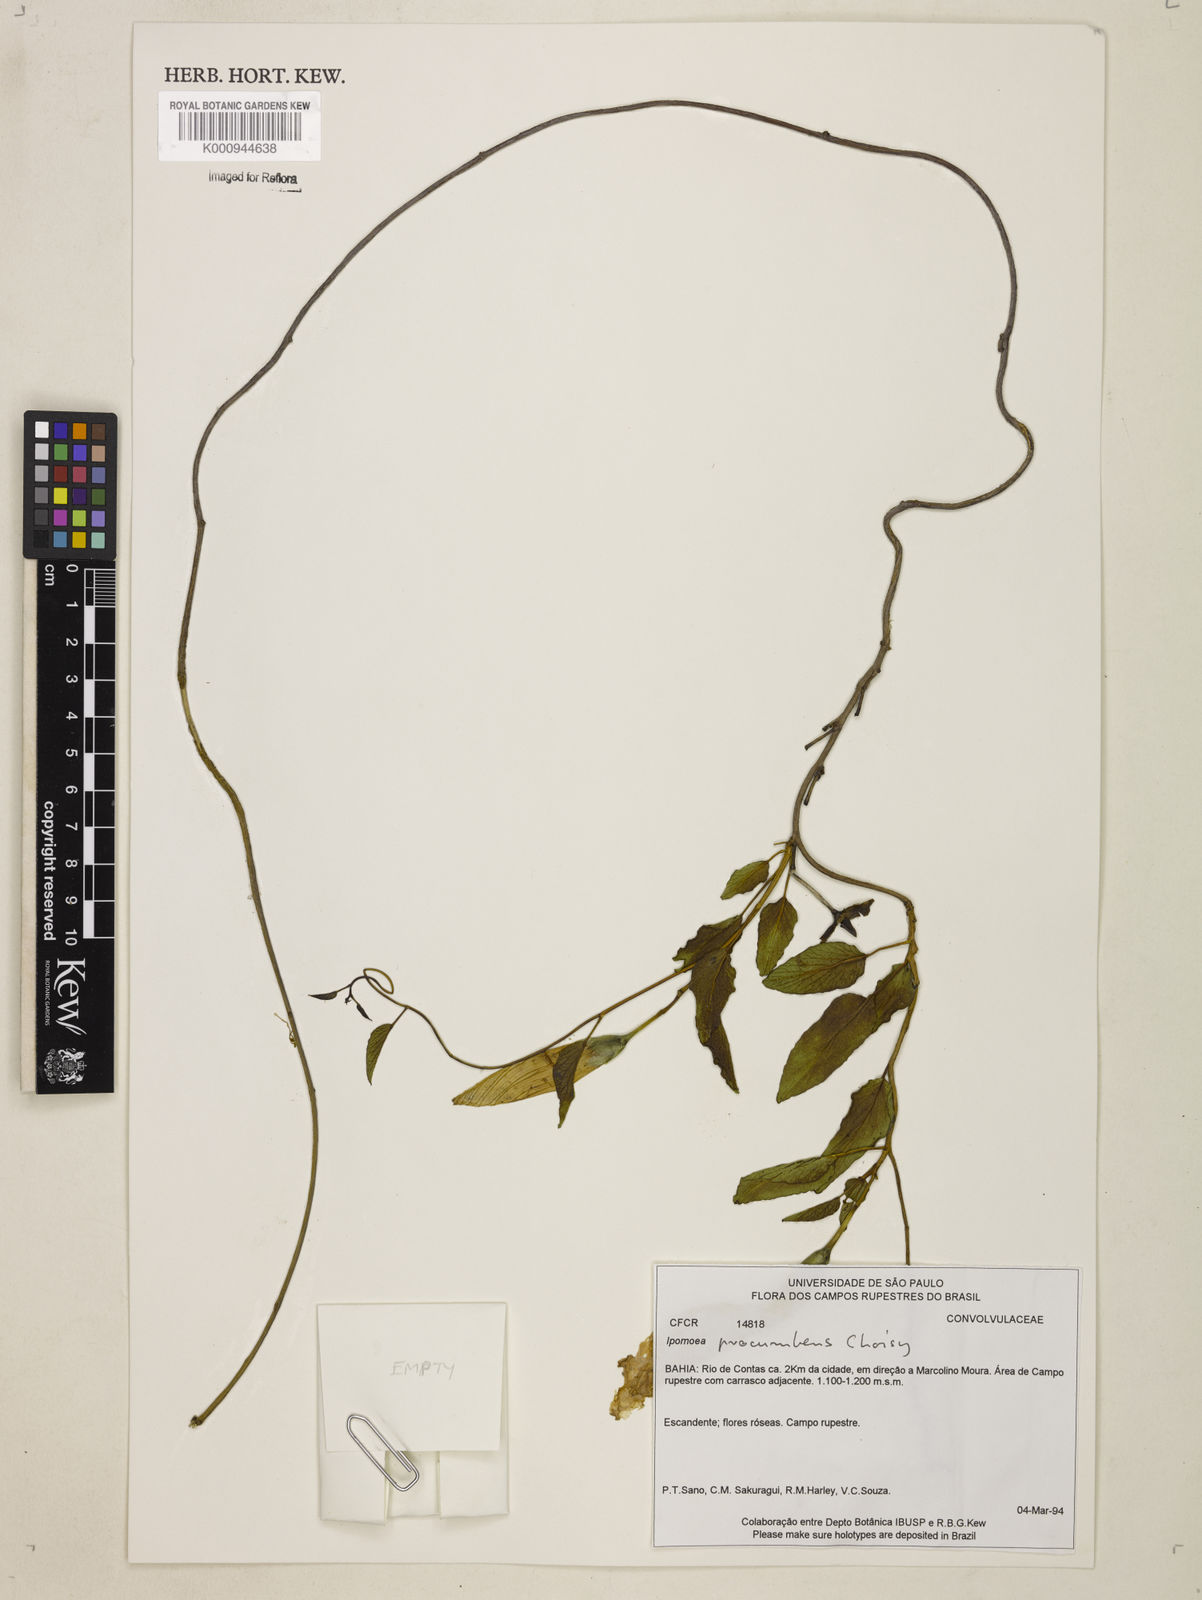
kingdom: Plantae
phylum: Tracheophyta
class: Magnoliopsida
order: Solanales
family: Convolvulaceae
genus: Ipomoea
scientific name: Ipomoea procumbens
